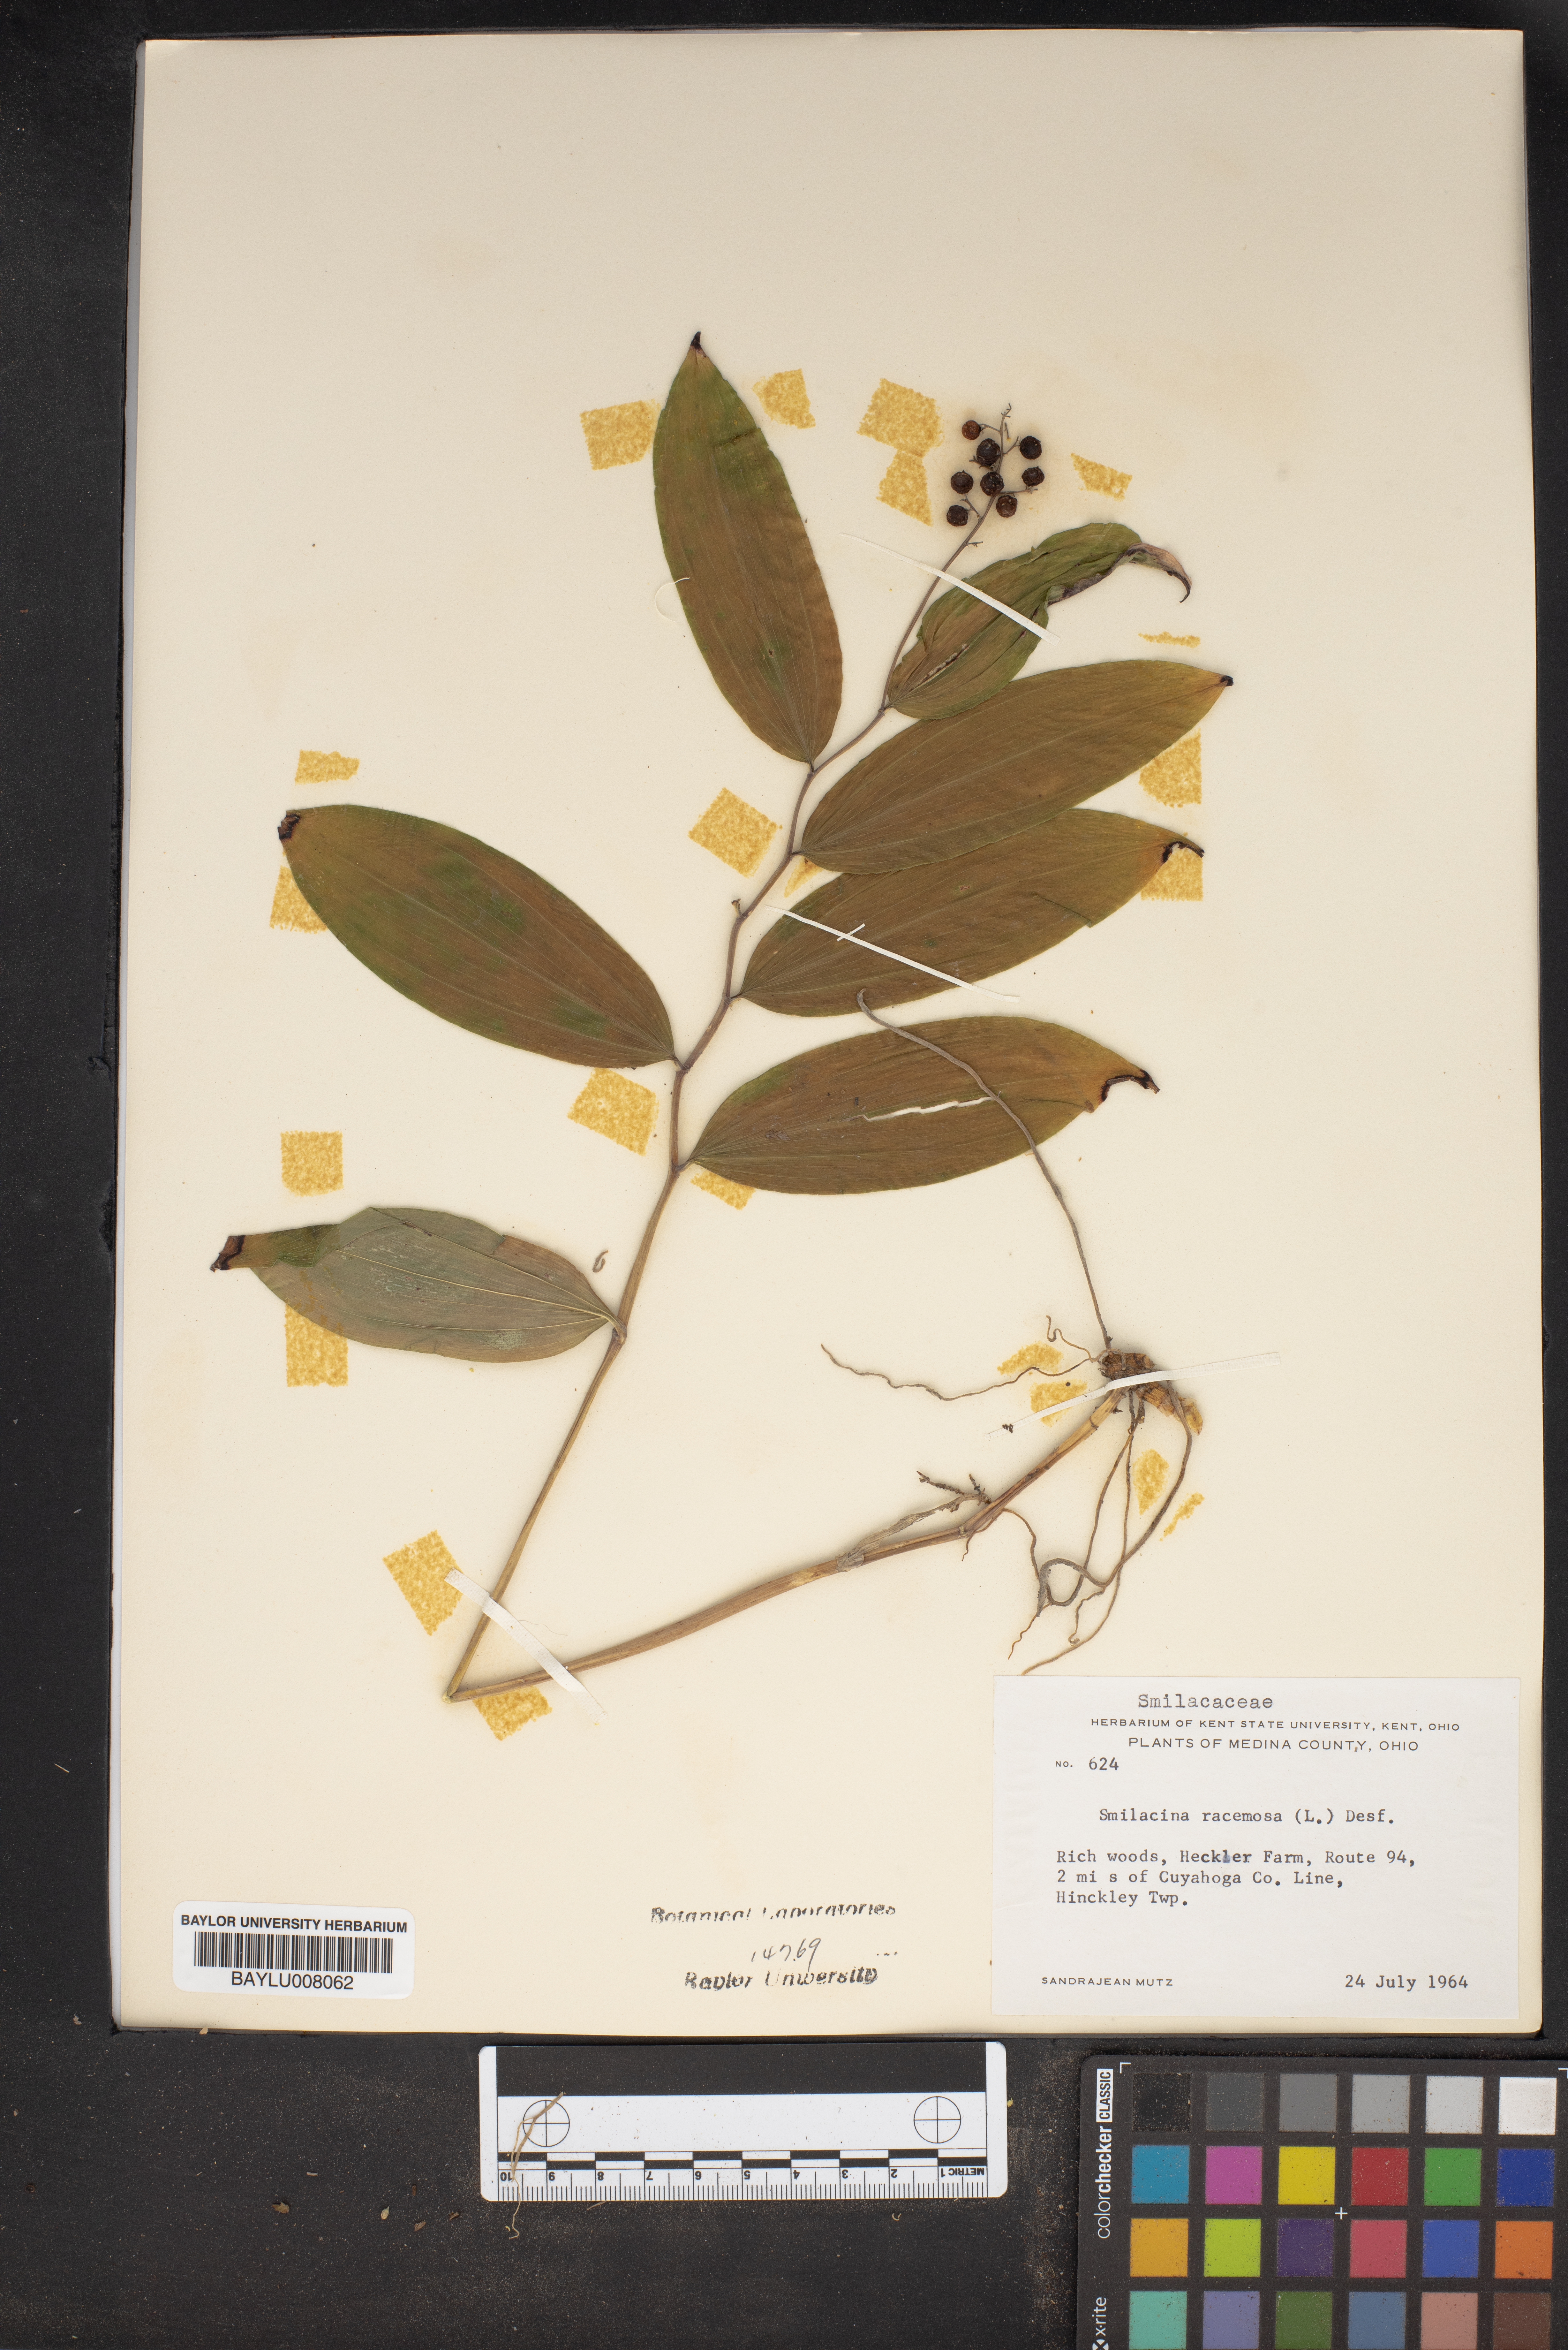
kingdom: Plantae
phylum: Tracheophyta
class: Liliopsida
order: Asparagales
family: Asparagaceae
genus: Maianthemum
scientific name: Maianthemum racemosum
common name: False spikenard
